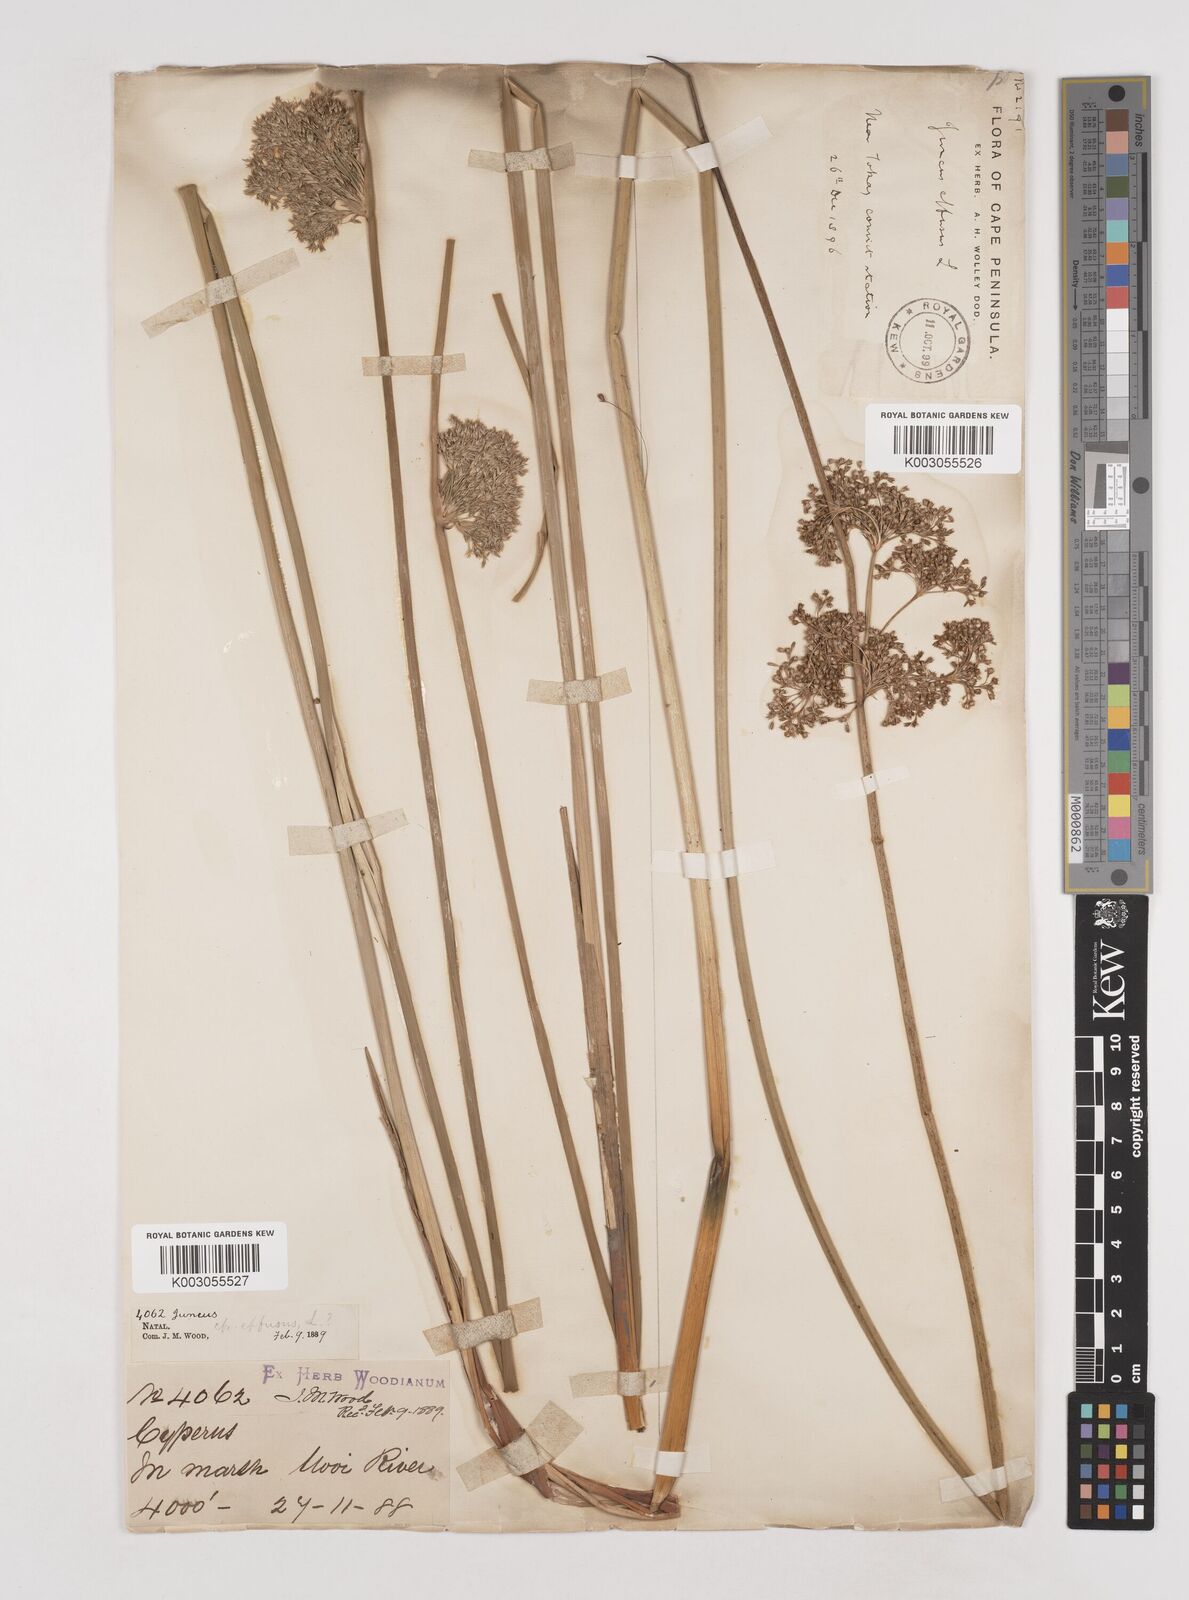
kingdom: Plantae
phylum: Tracheophyta
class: Liliopsida
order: Poales
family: Juncaceae
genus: Juncus
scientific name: Juncus effusus
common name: Soft rush
